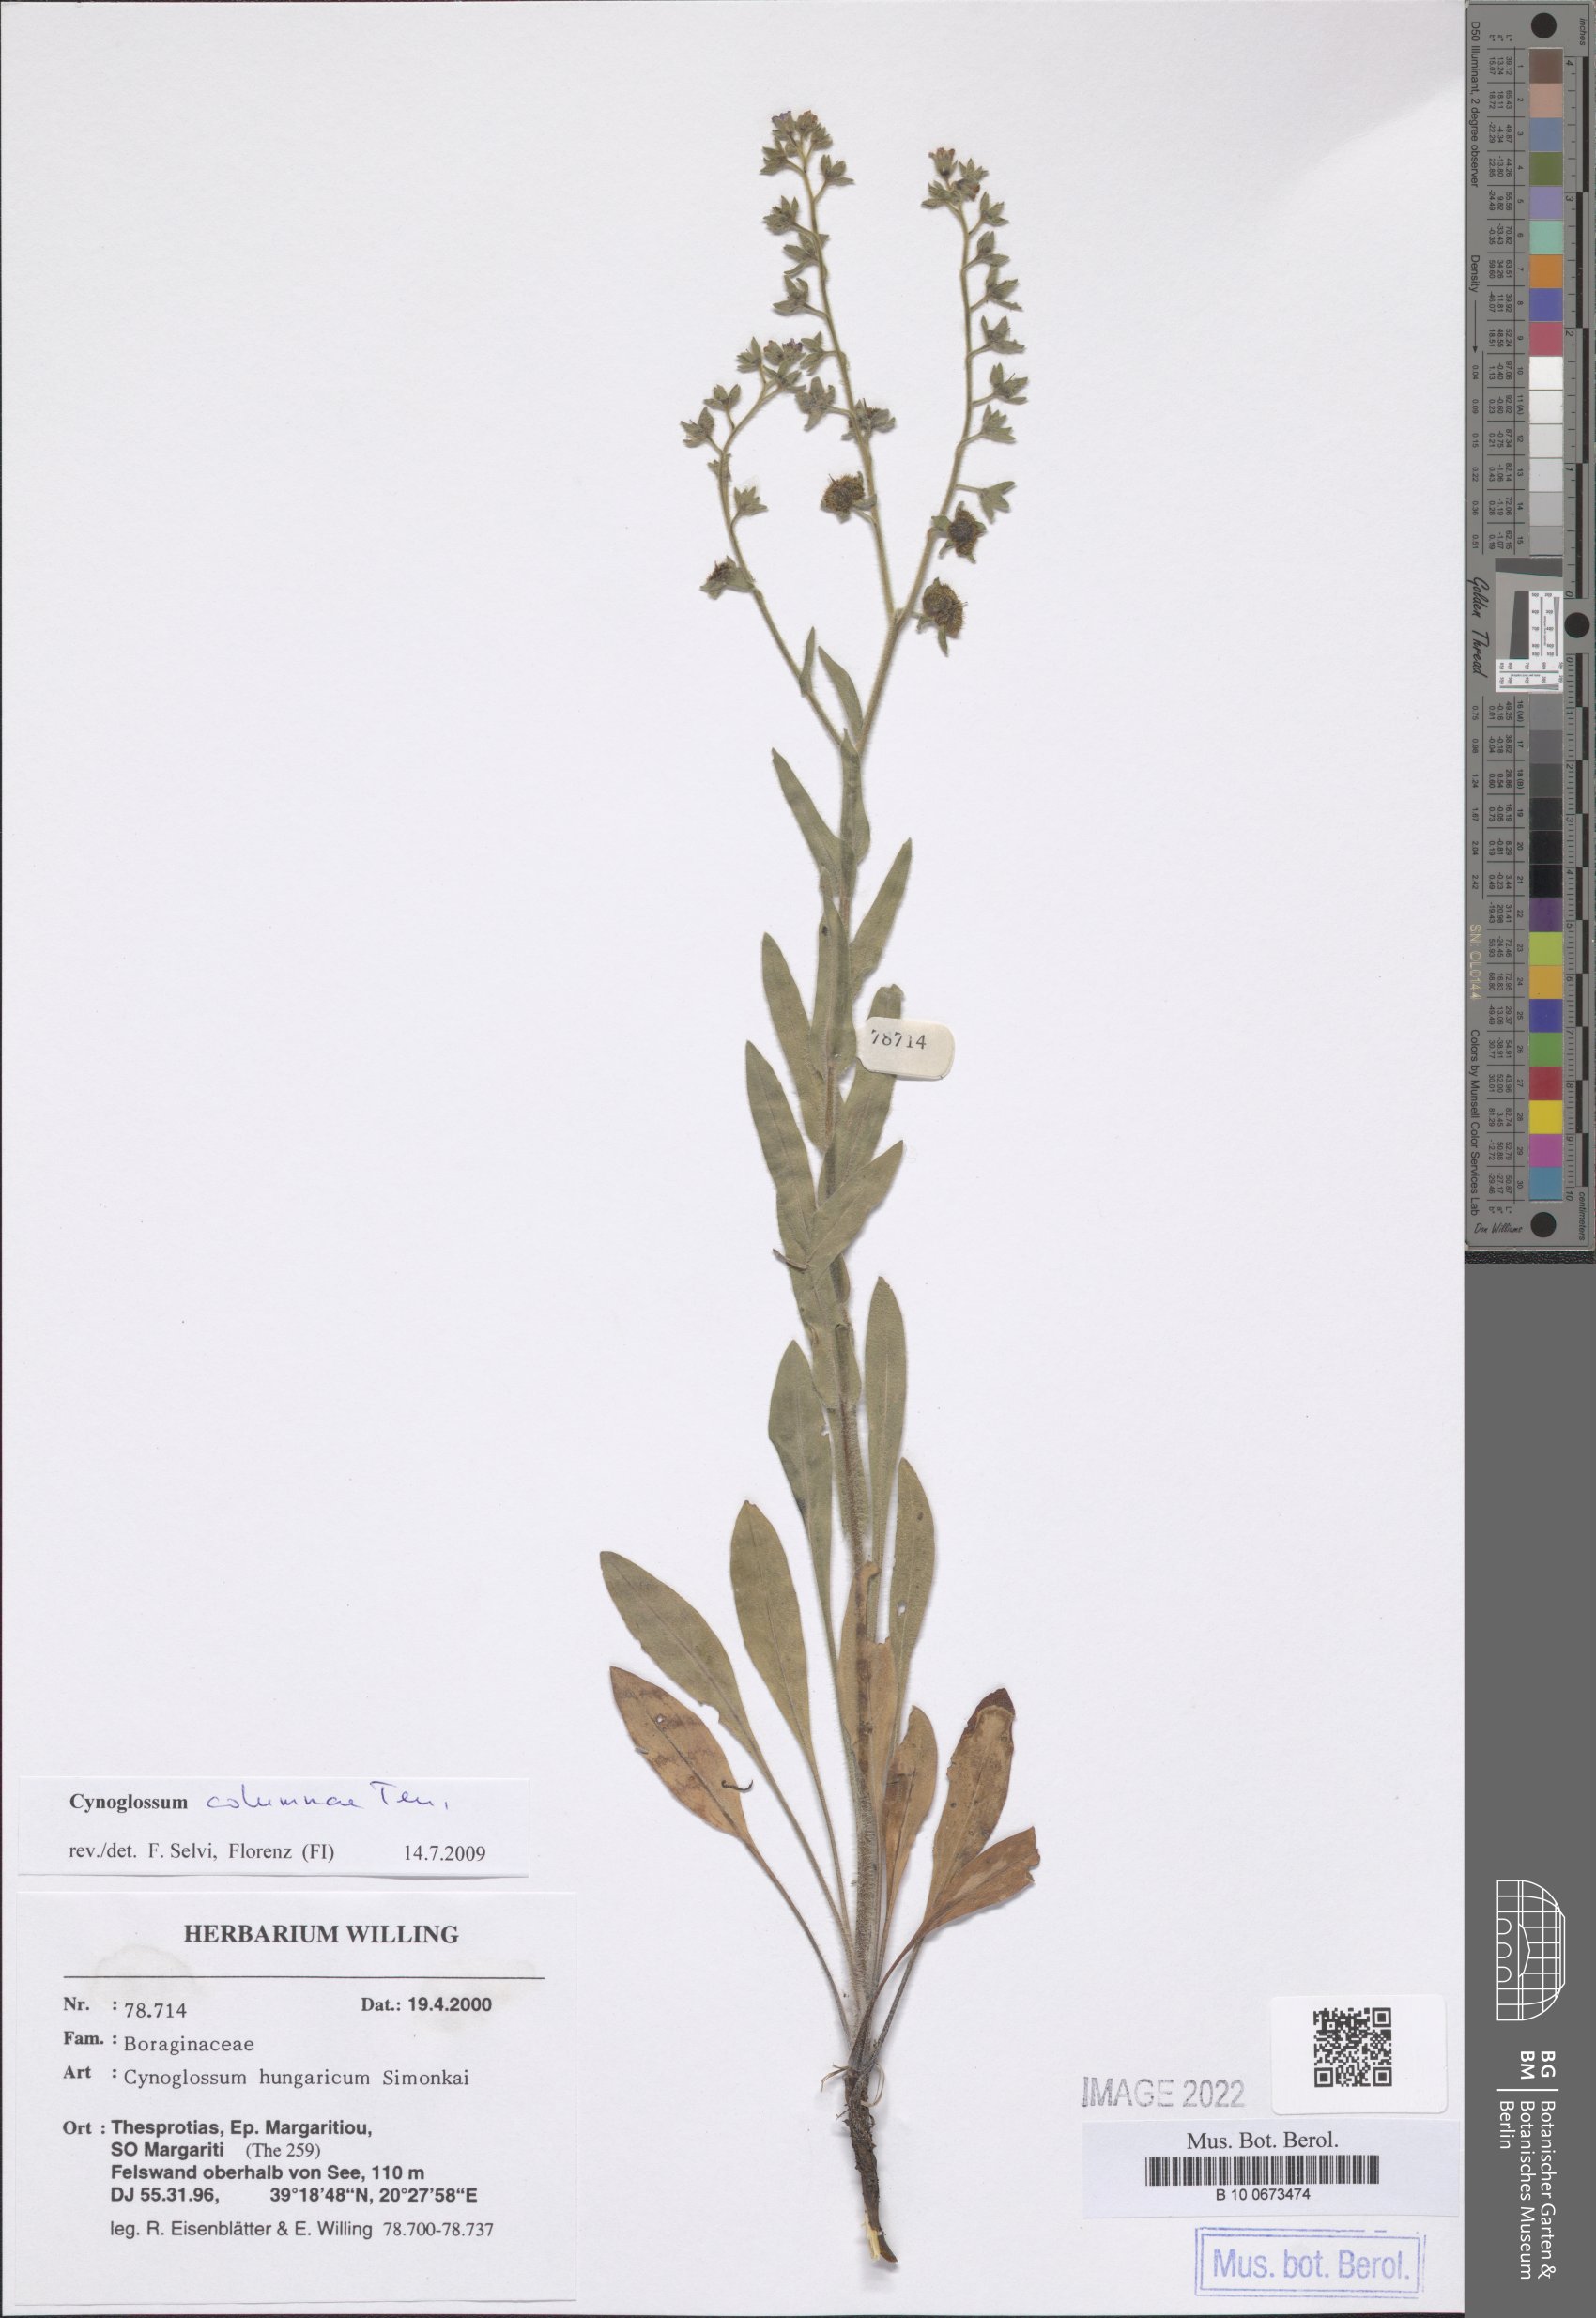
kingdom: Plantae
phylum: Tracheophyta
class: Magnoliopsida
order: Boraginales
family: Boraginaceae
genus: Rindera
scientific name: Rindera columnae
